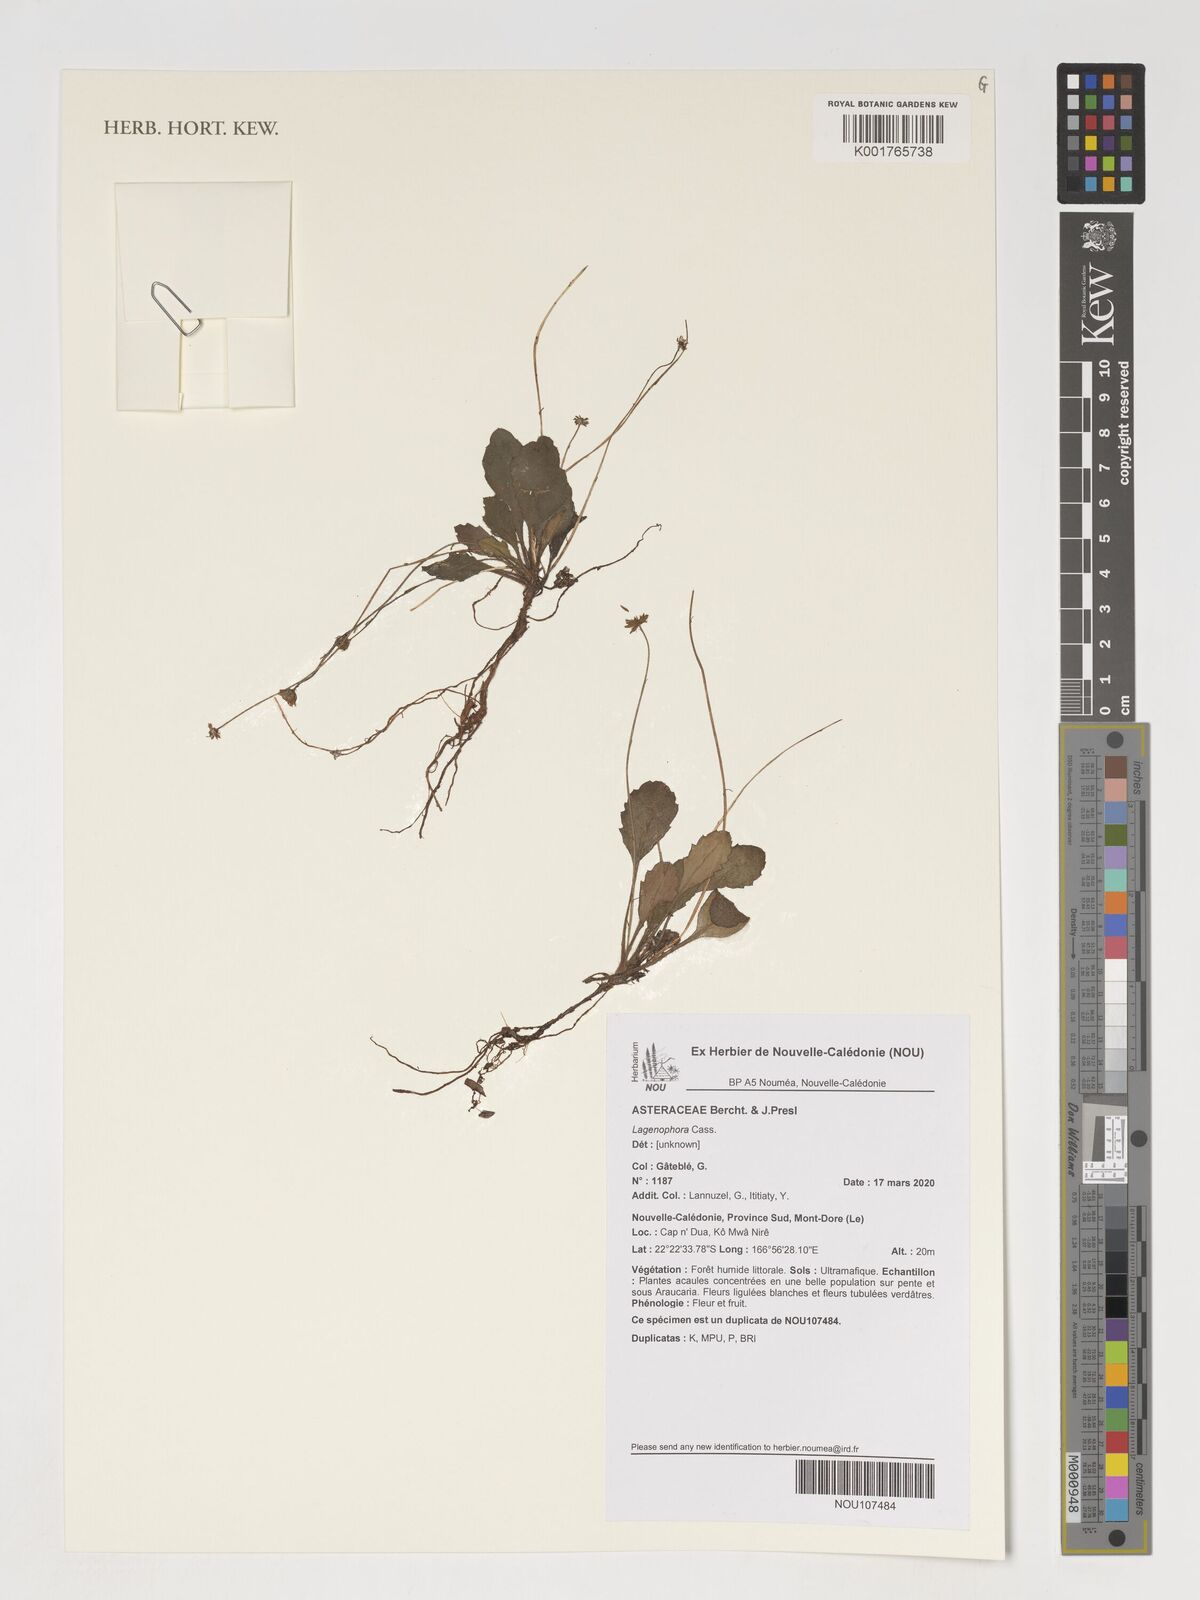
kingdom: Plantae
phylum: Tracheophyta
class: Magnoliopsida
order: Asterales
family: Asteraceae
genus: Lagenophora
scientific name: Lagenophora
